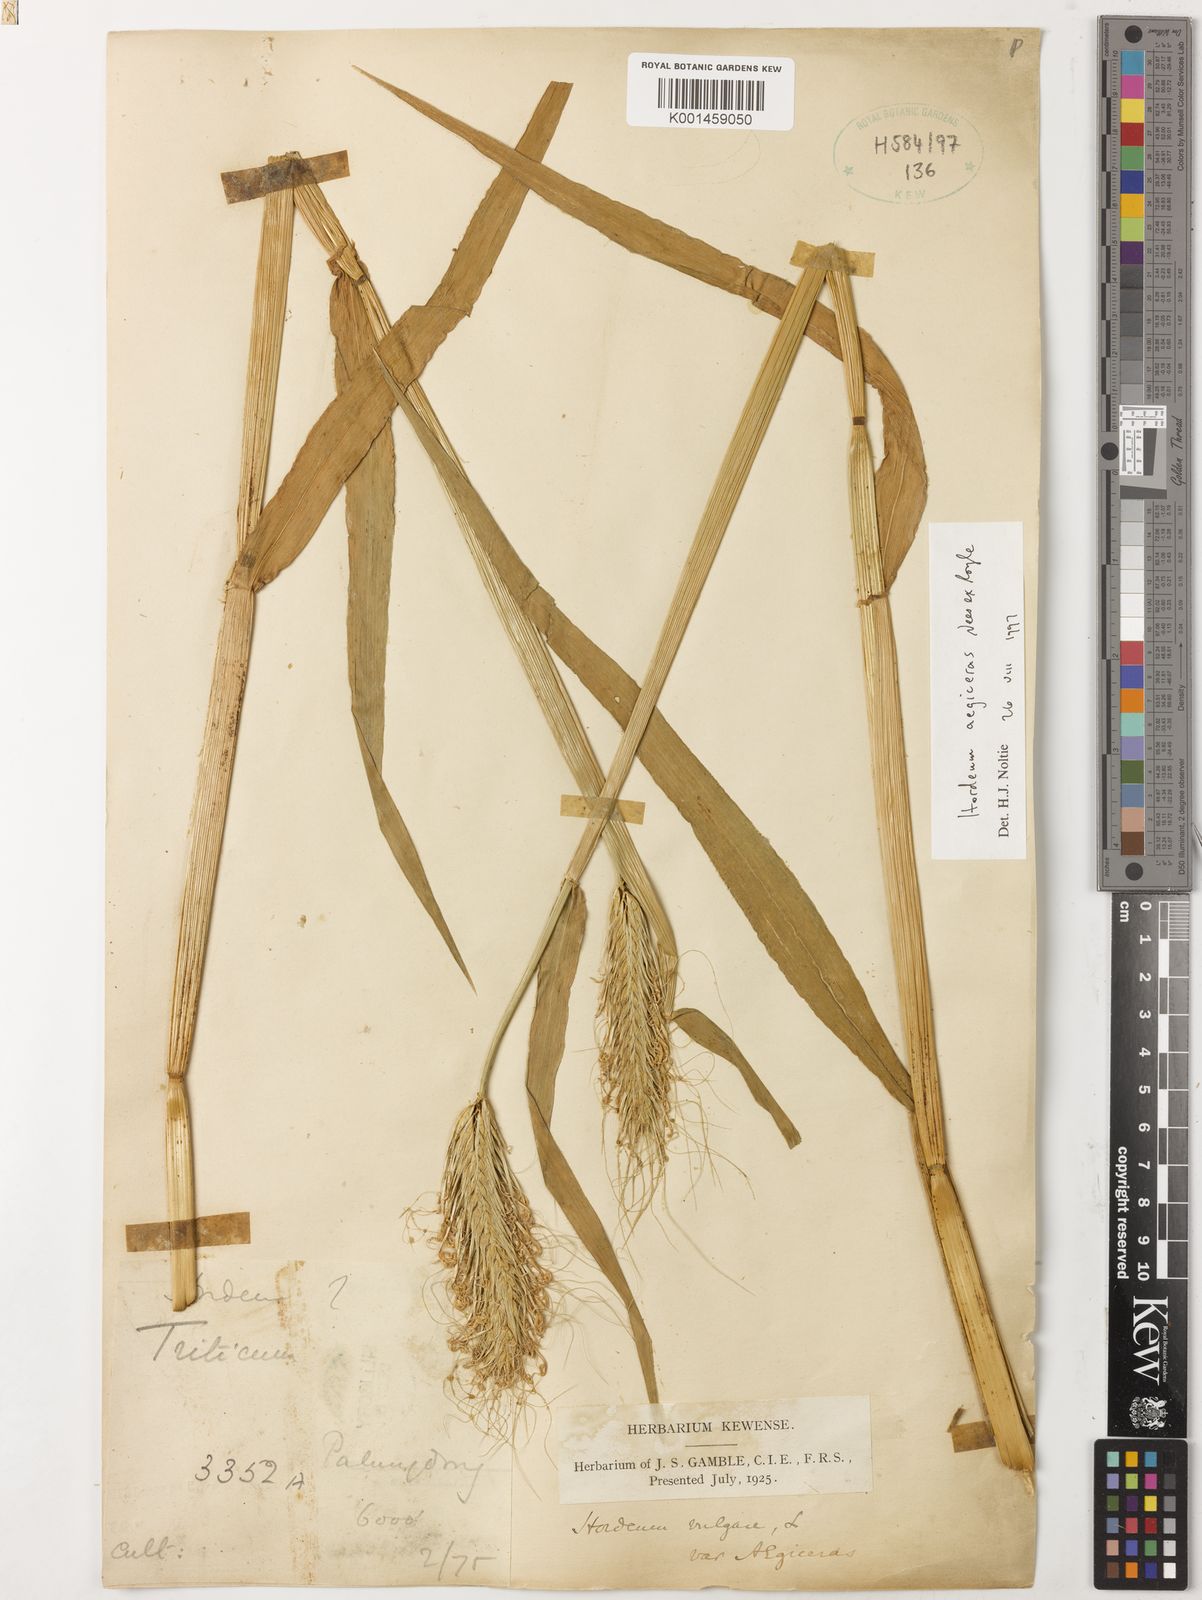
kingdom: Plantae
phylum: Tracheophyta
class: Liliopsida
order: Poales
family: Poaceae
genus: Hordeum
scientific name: Hordeum vulgare
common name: Common barley
